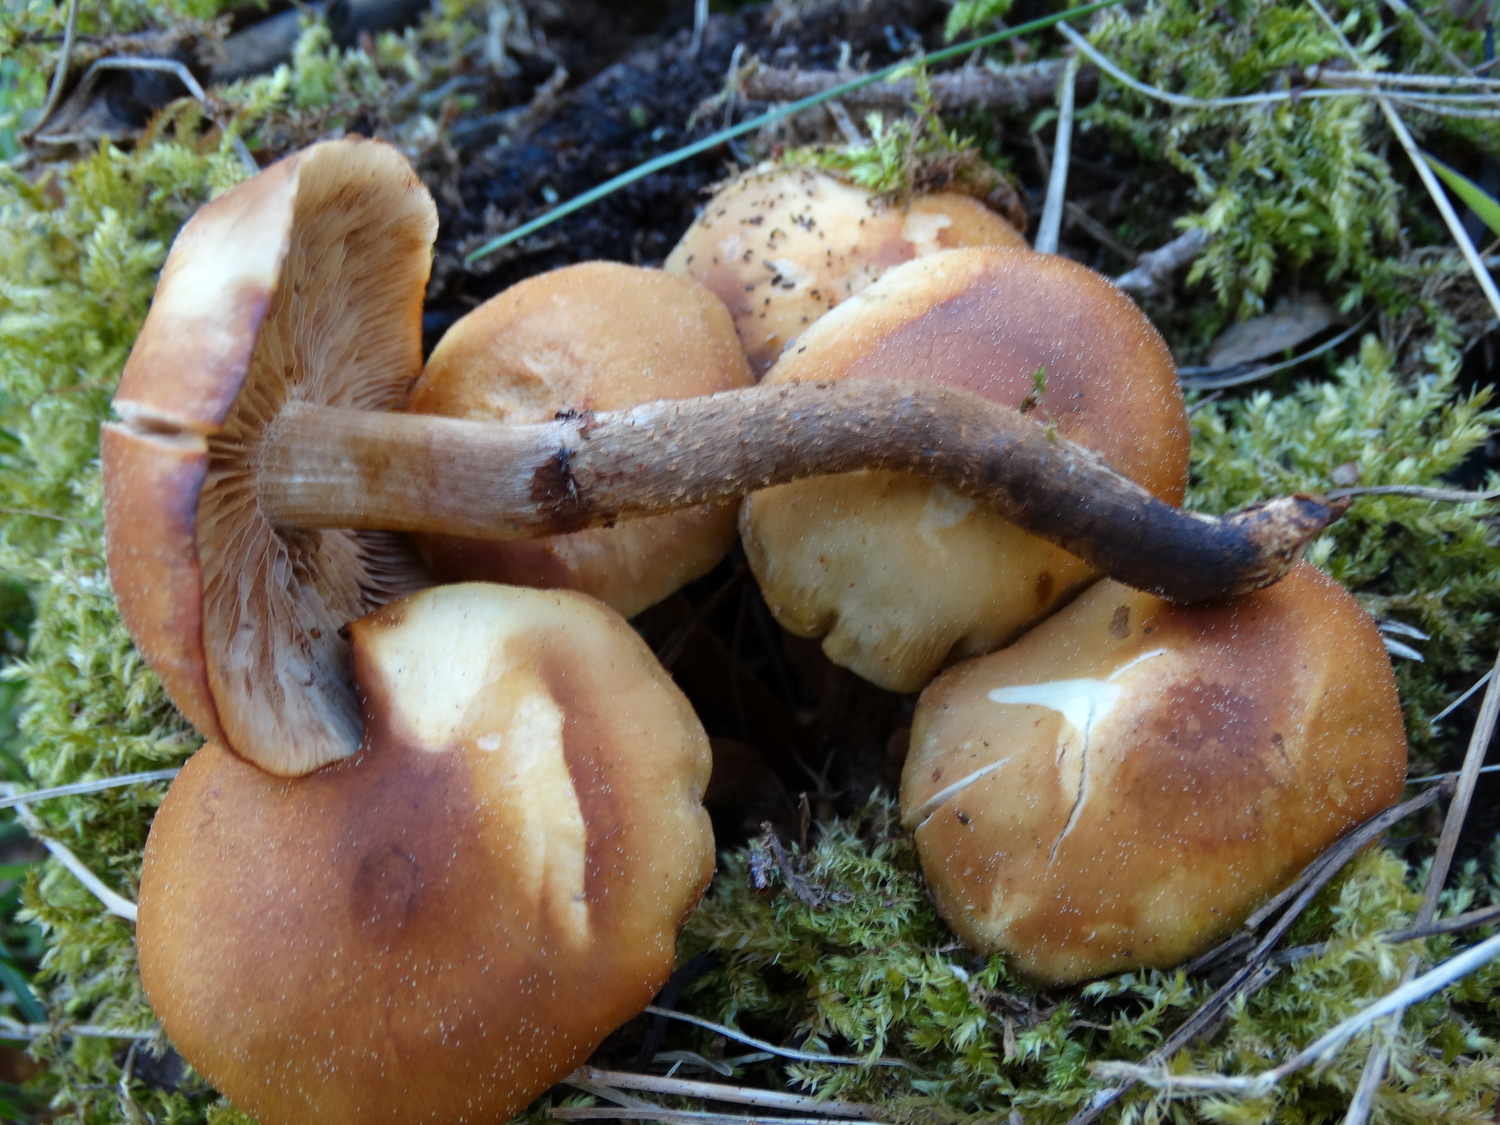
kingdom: Fungi
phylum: Basidiomycota
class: Agaricomycetes
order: Agaricales
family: Strophariaceae
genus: Kuehneromyces
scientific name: Kuehneromyces mutabilis
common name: foranderlig skælhat
